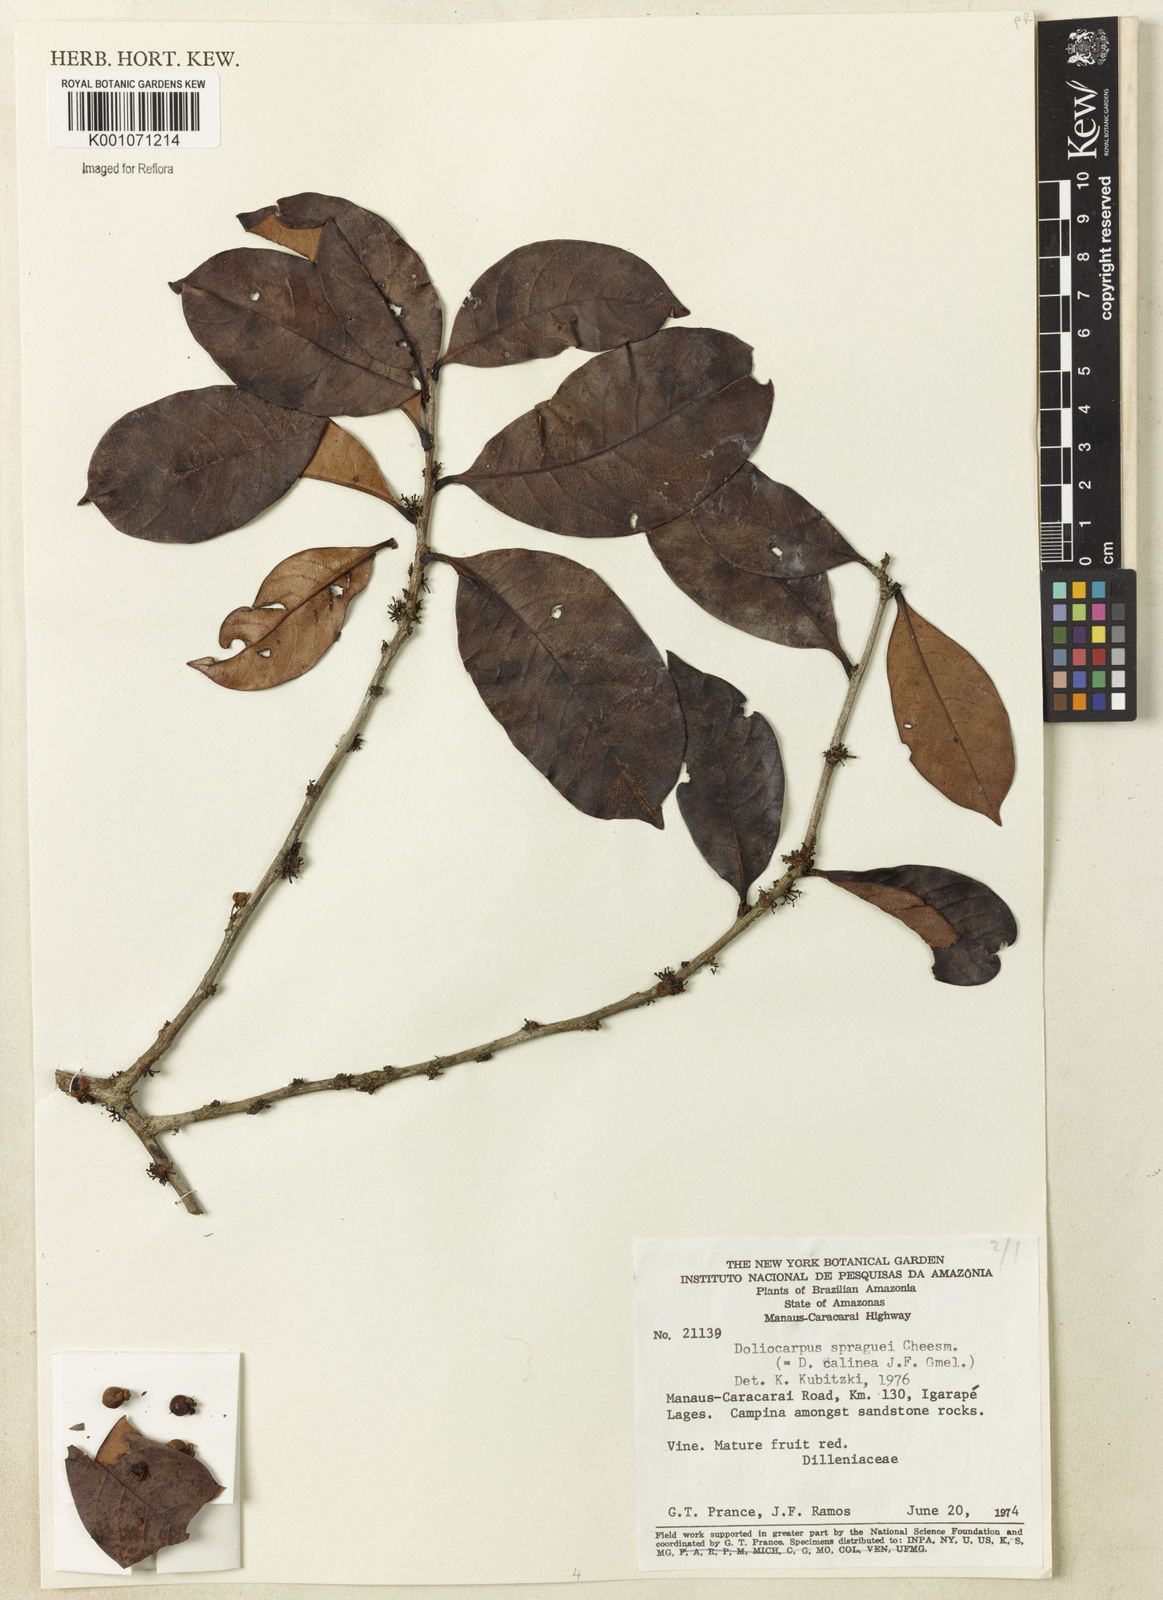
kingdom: Plantae
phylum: Tracheophyta
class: Magnoliopsida
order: Dilleniales
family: Dilleniaceae
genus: Doliocarpus
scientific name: Doliocarpus spraguei
